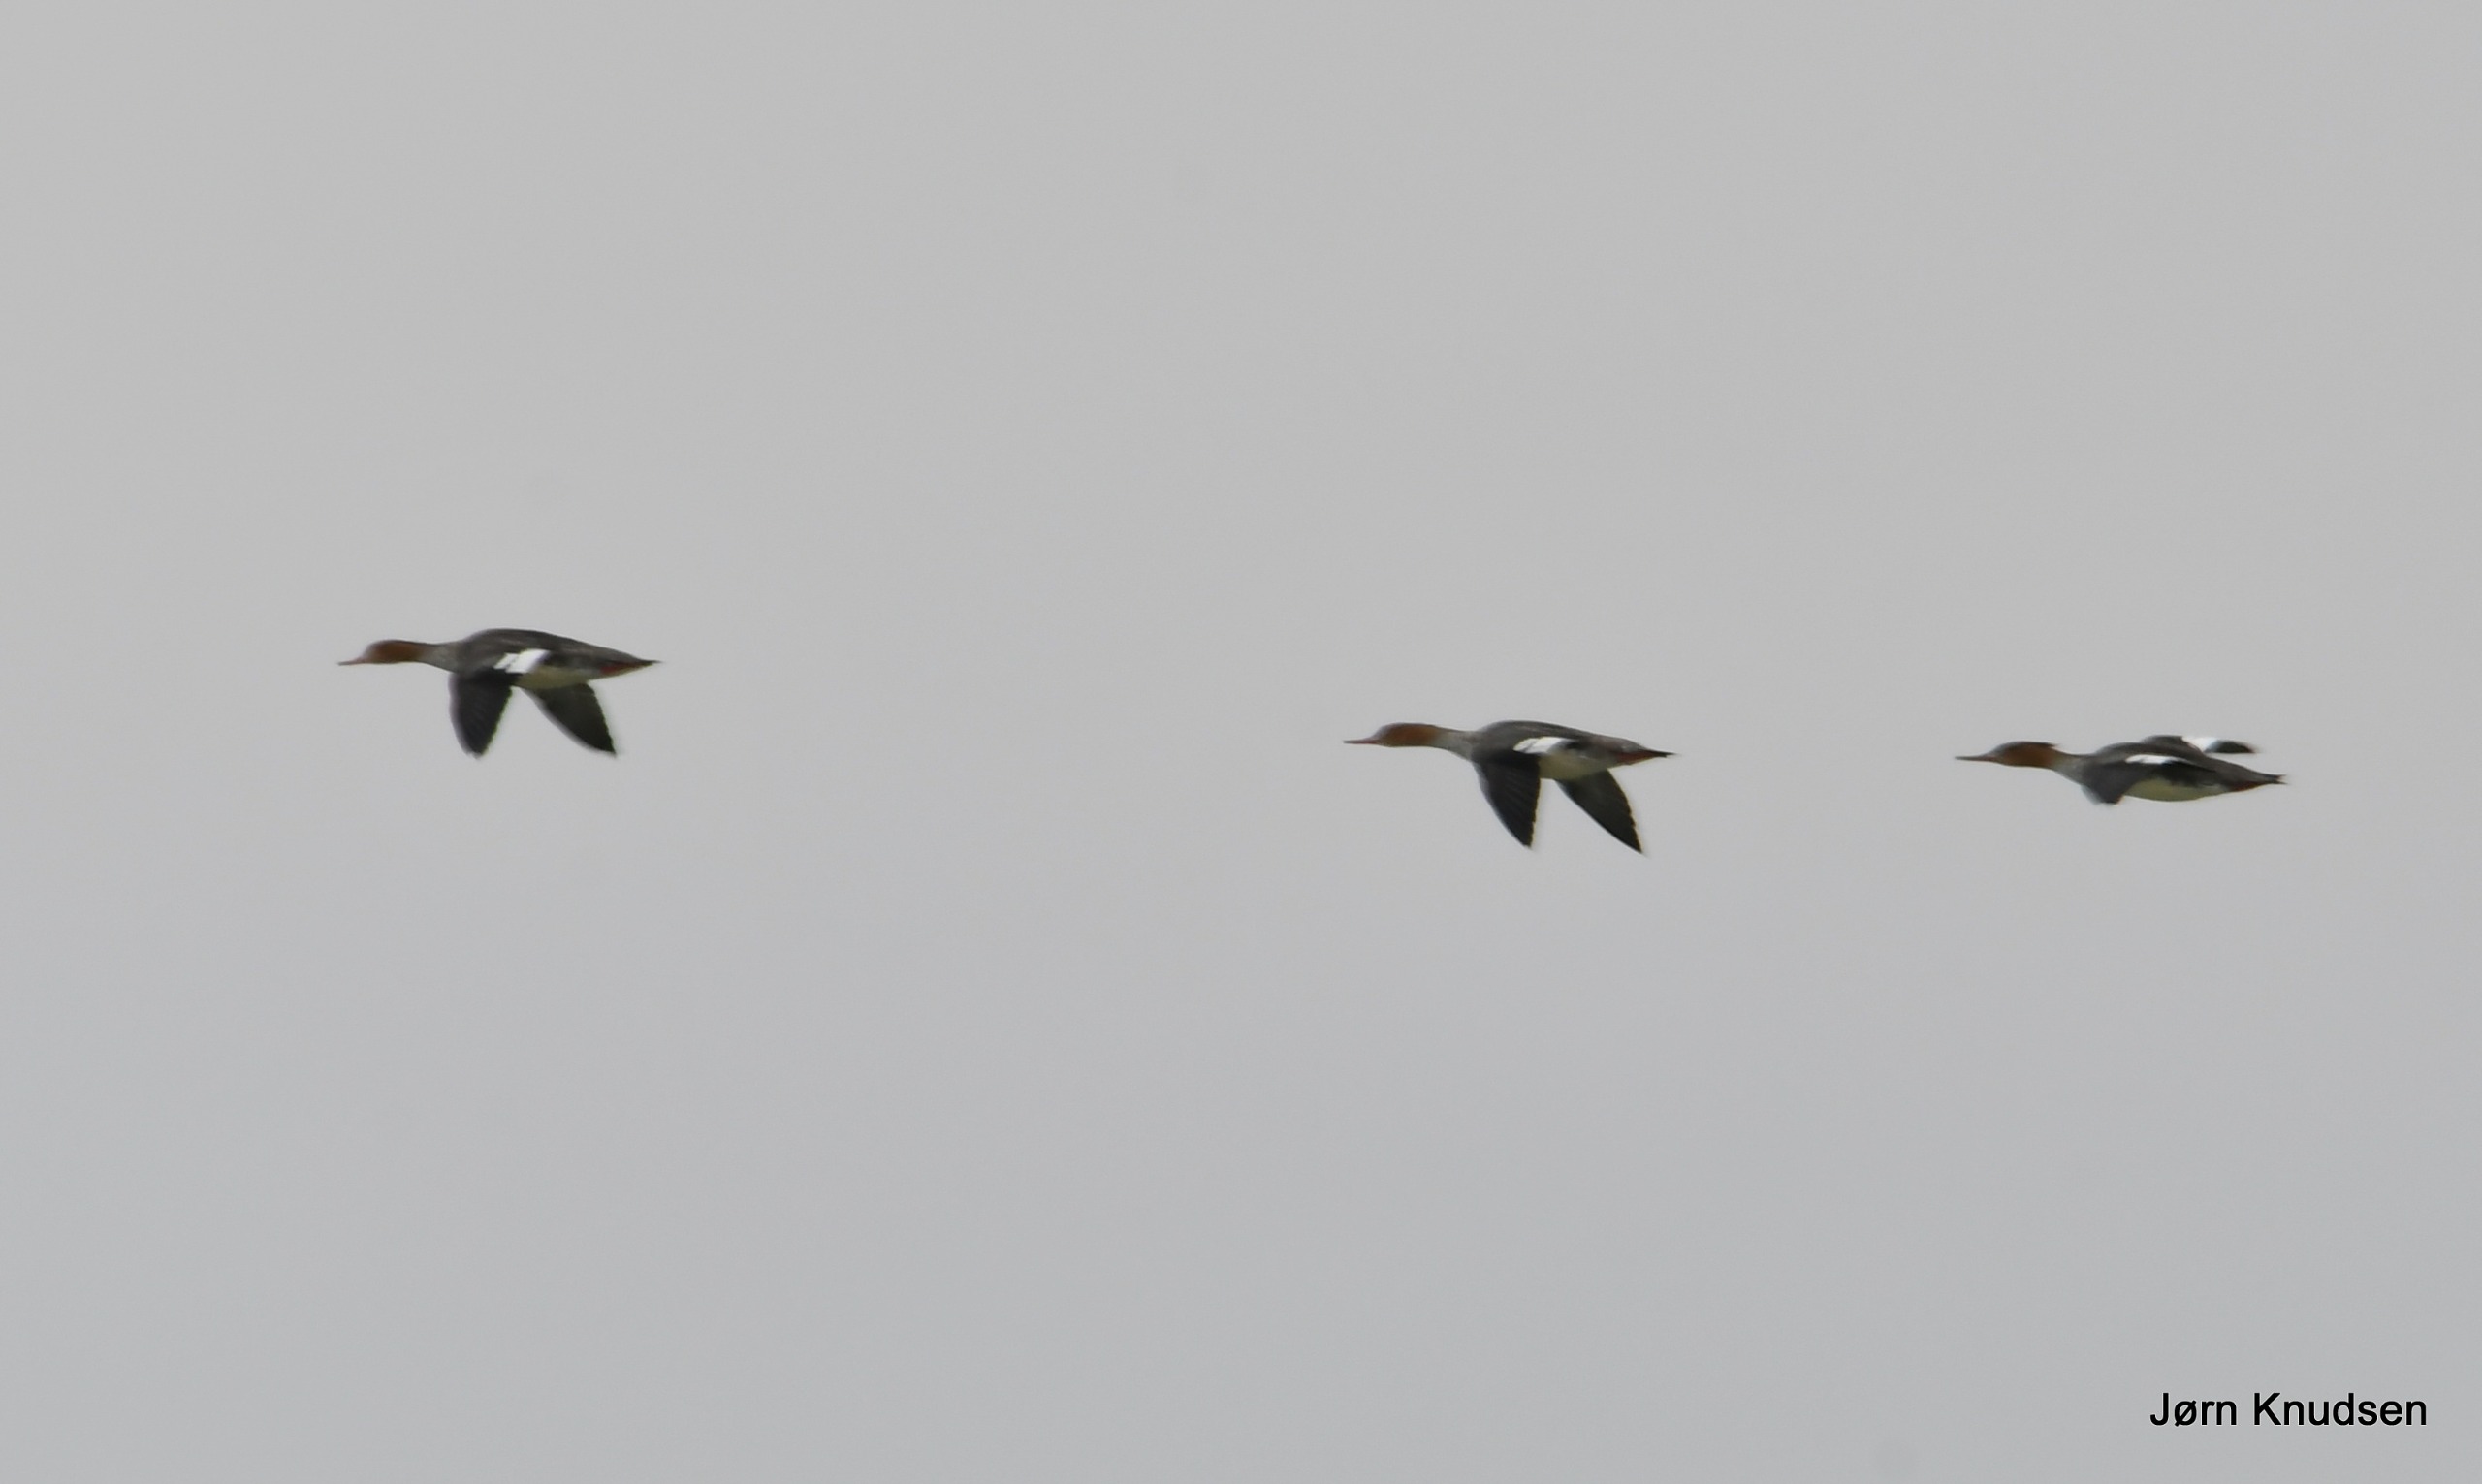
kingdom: Animalia
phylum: Chordata
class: Aves
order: Anseriformes
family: Anatidae
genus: Mergus
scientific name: Mergus serrator
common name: Toppet skallesluger
